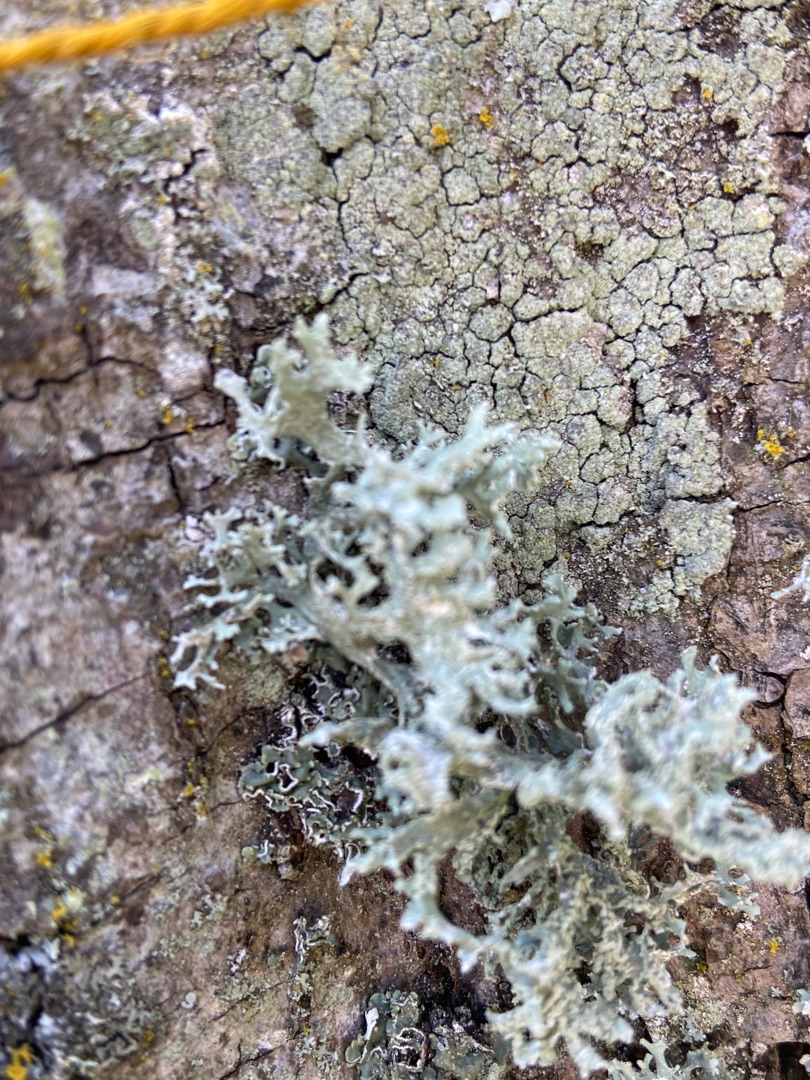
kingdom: Fungi
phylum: Ascomycota
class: Lecanoromycetes
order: Lecanorales
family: Parmeliaceae
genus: Evernia
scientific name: Evernia prunastri
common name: Almindelig slåenlav
